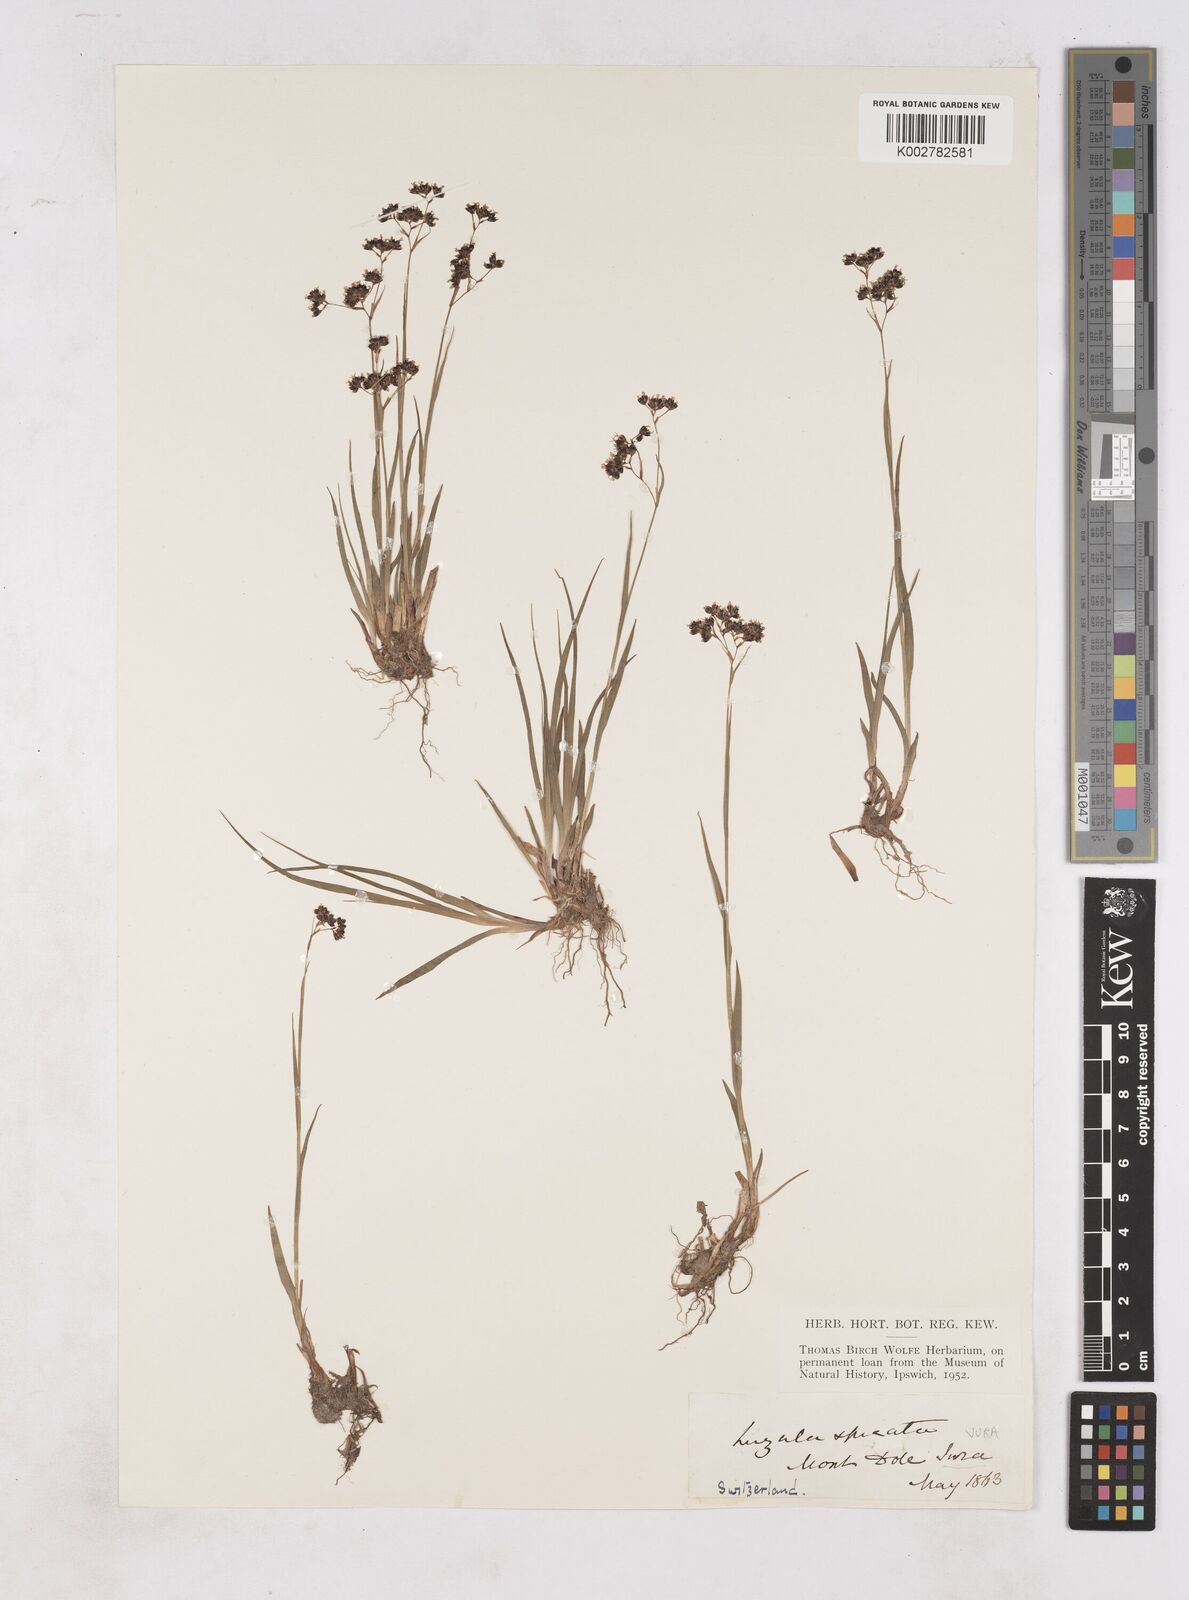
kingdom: Plantae
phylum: Tracheophyta
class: Liliopsida
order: Poales
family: Juncaceae
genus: Luzula
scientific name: Luzula spicata
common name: Spiked wood-rush
